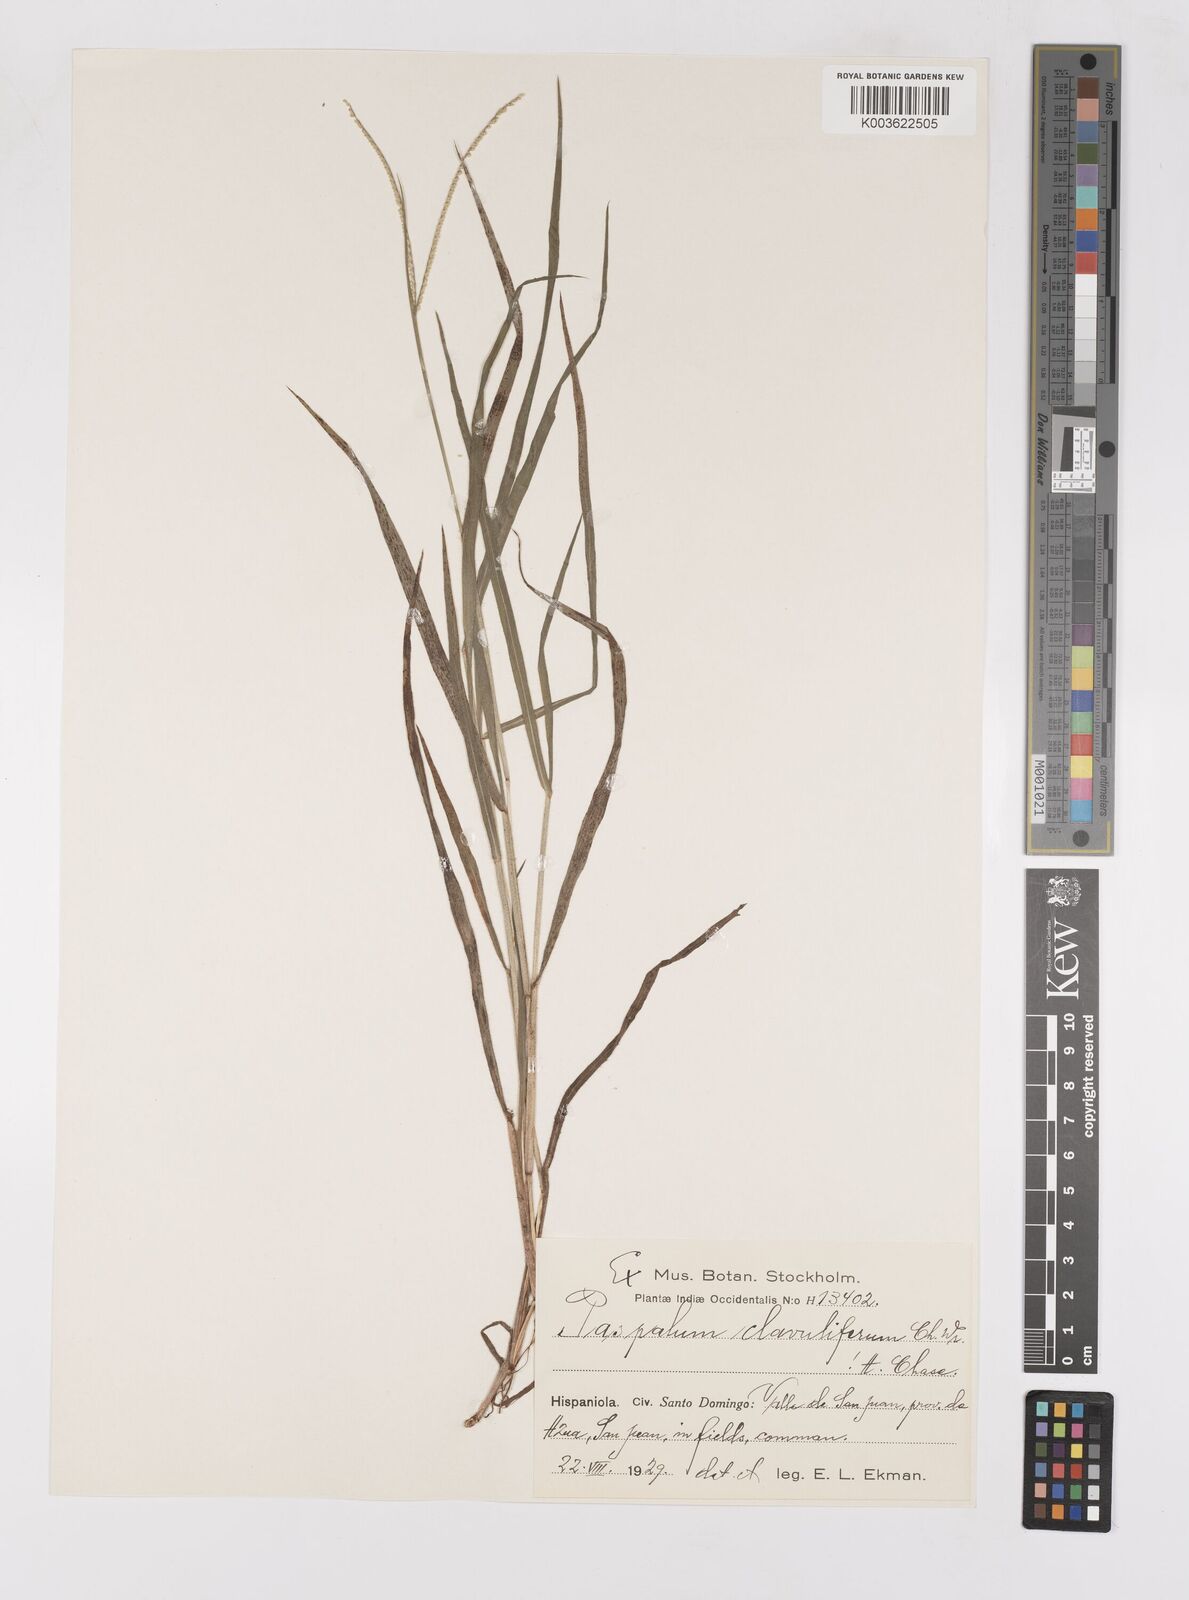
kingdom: Plantae
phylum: Tracheophyta
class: Liliopsida
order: Poales
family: Poaceae
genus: Paspalum
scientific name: Paspalum clavuliferum
